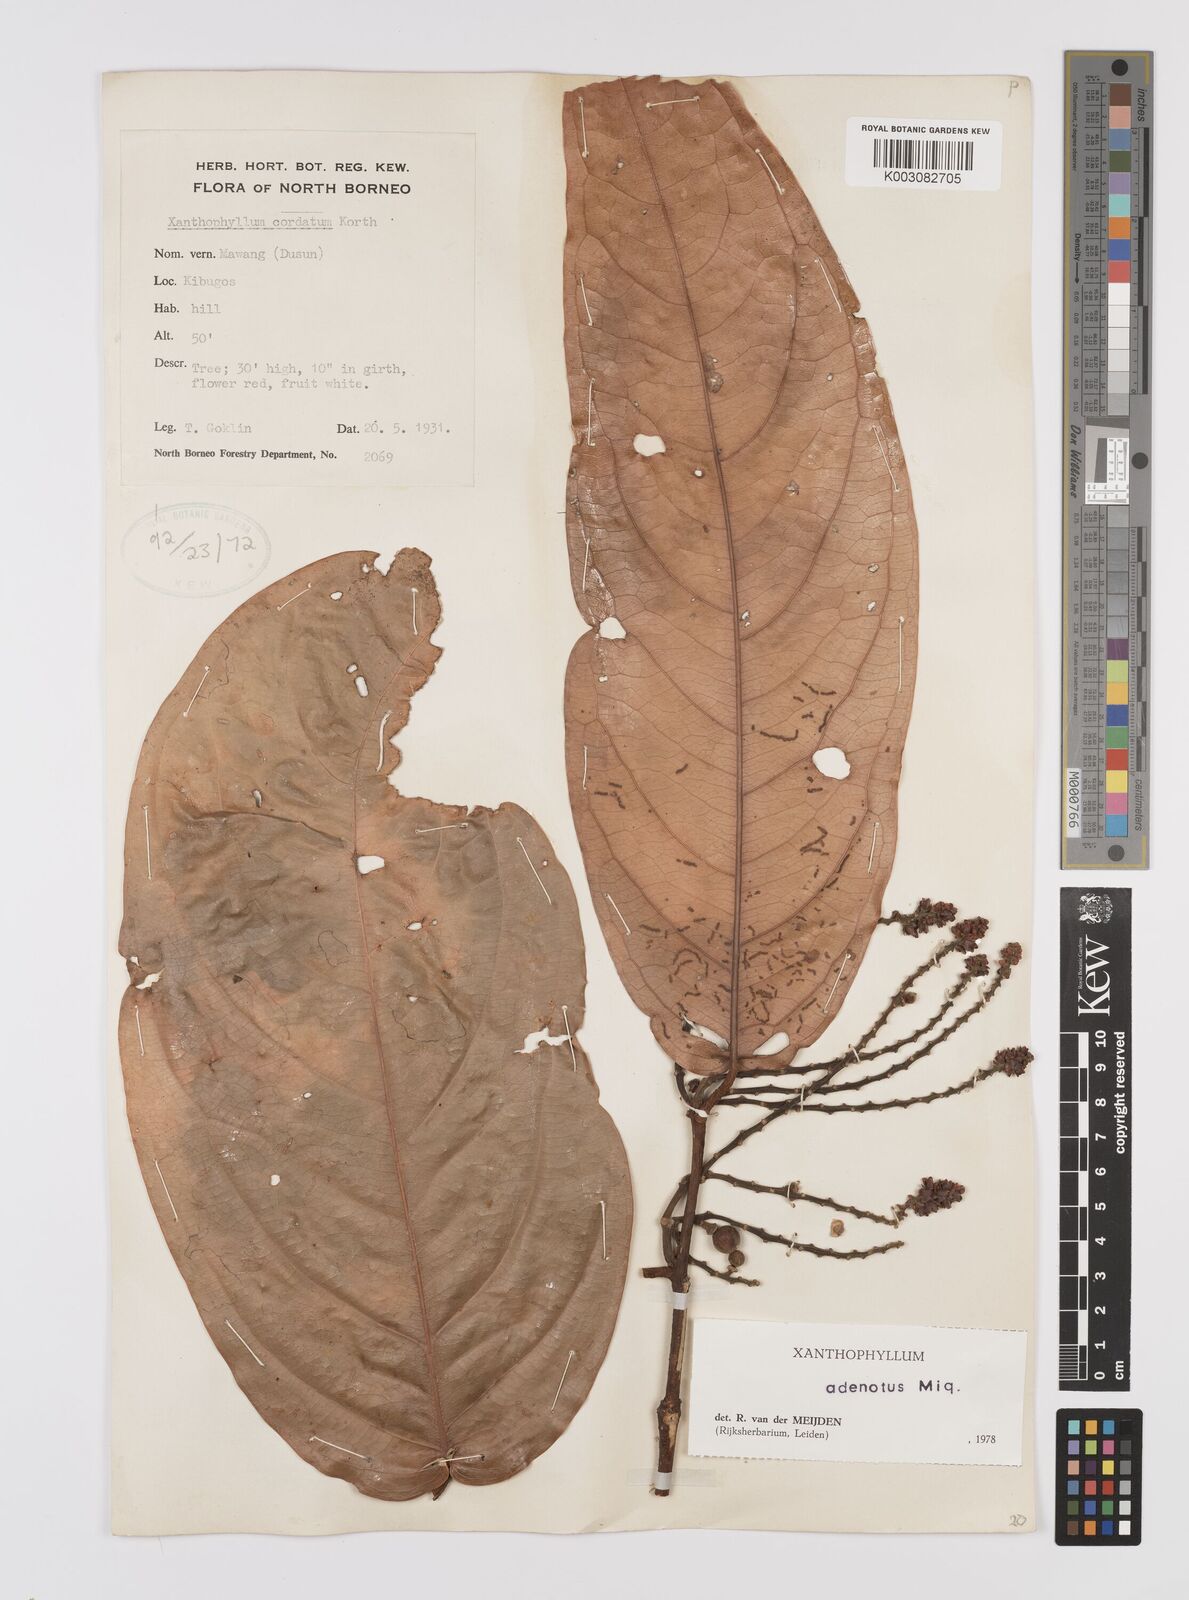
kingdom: Plantae
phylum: Tracheophyta
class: Magnoliopsida
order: Fabales
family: Polygalaceae
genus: Xanthophyllum
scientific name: Xanthophyllum adenotus
